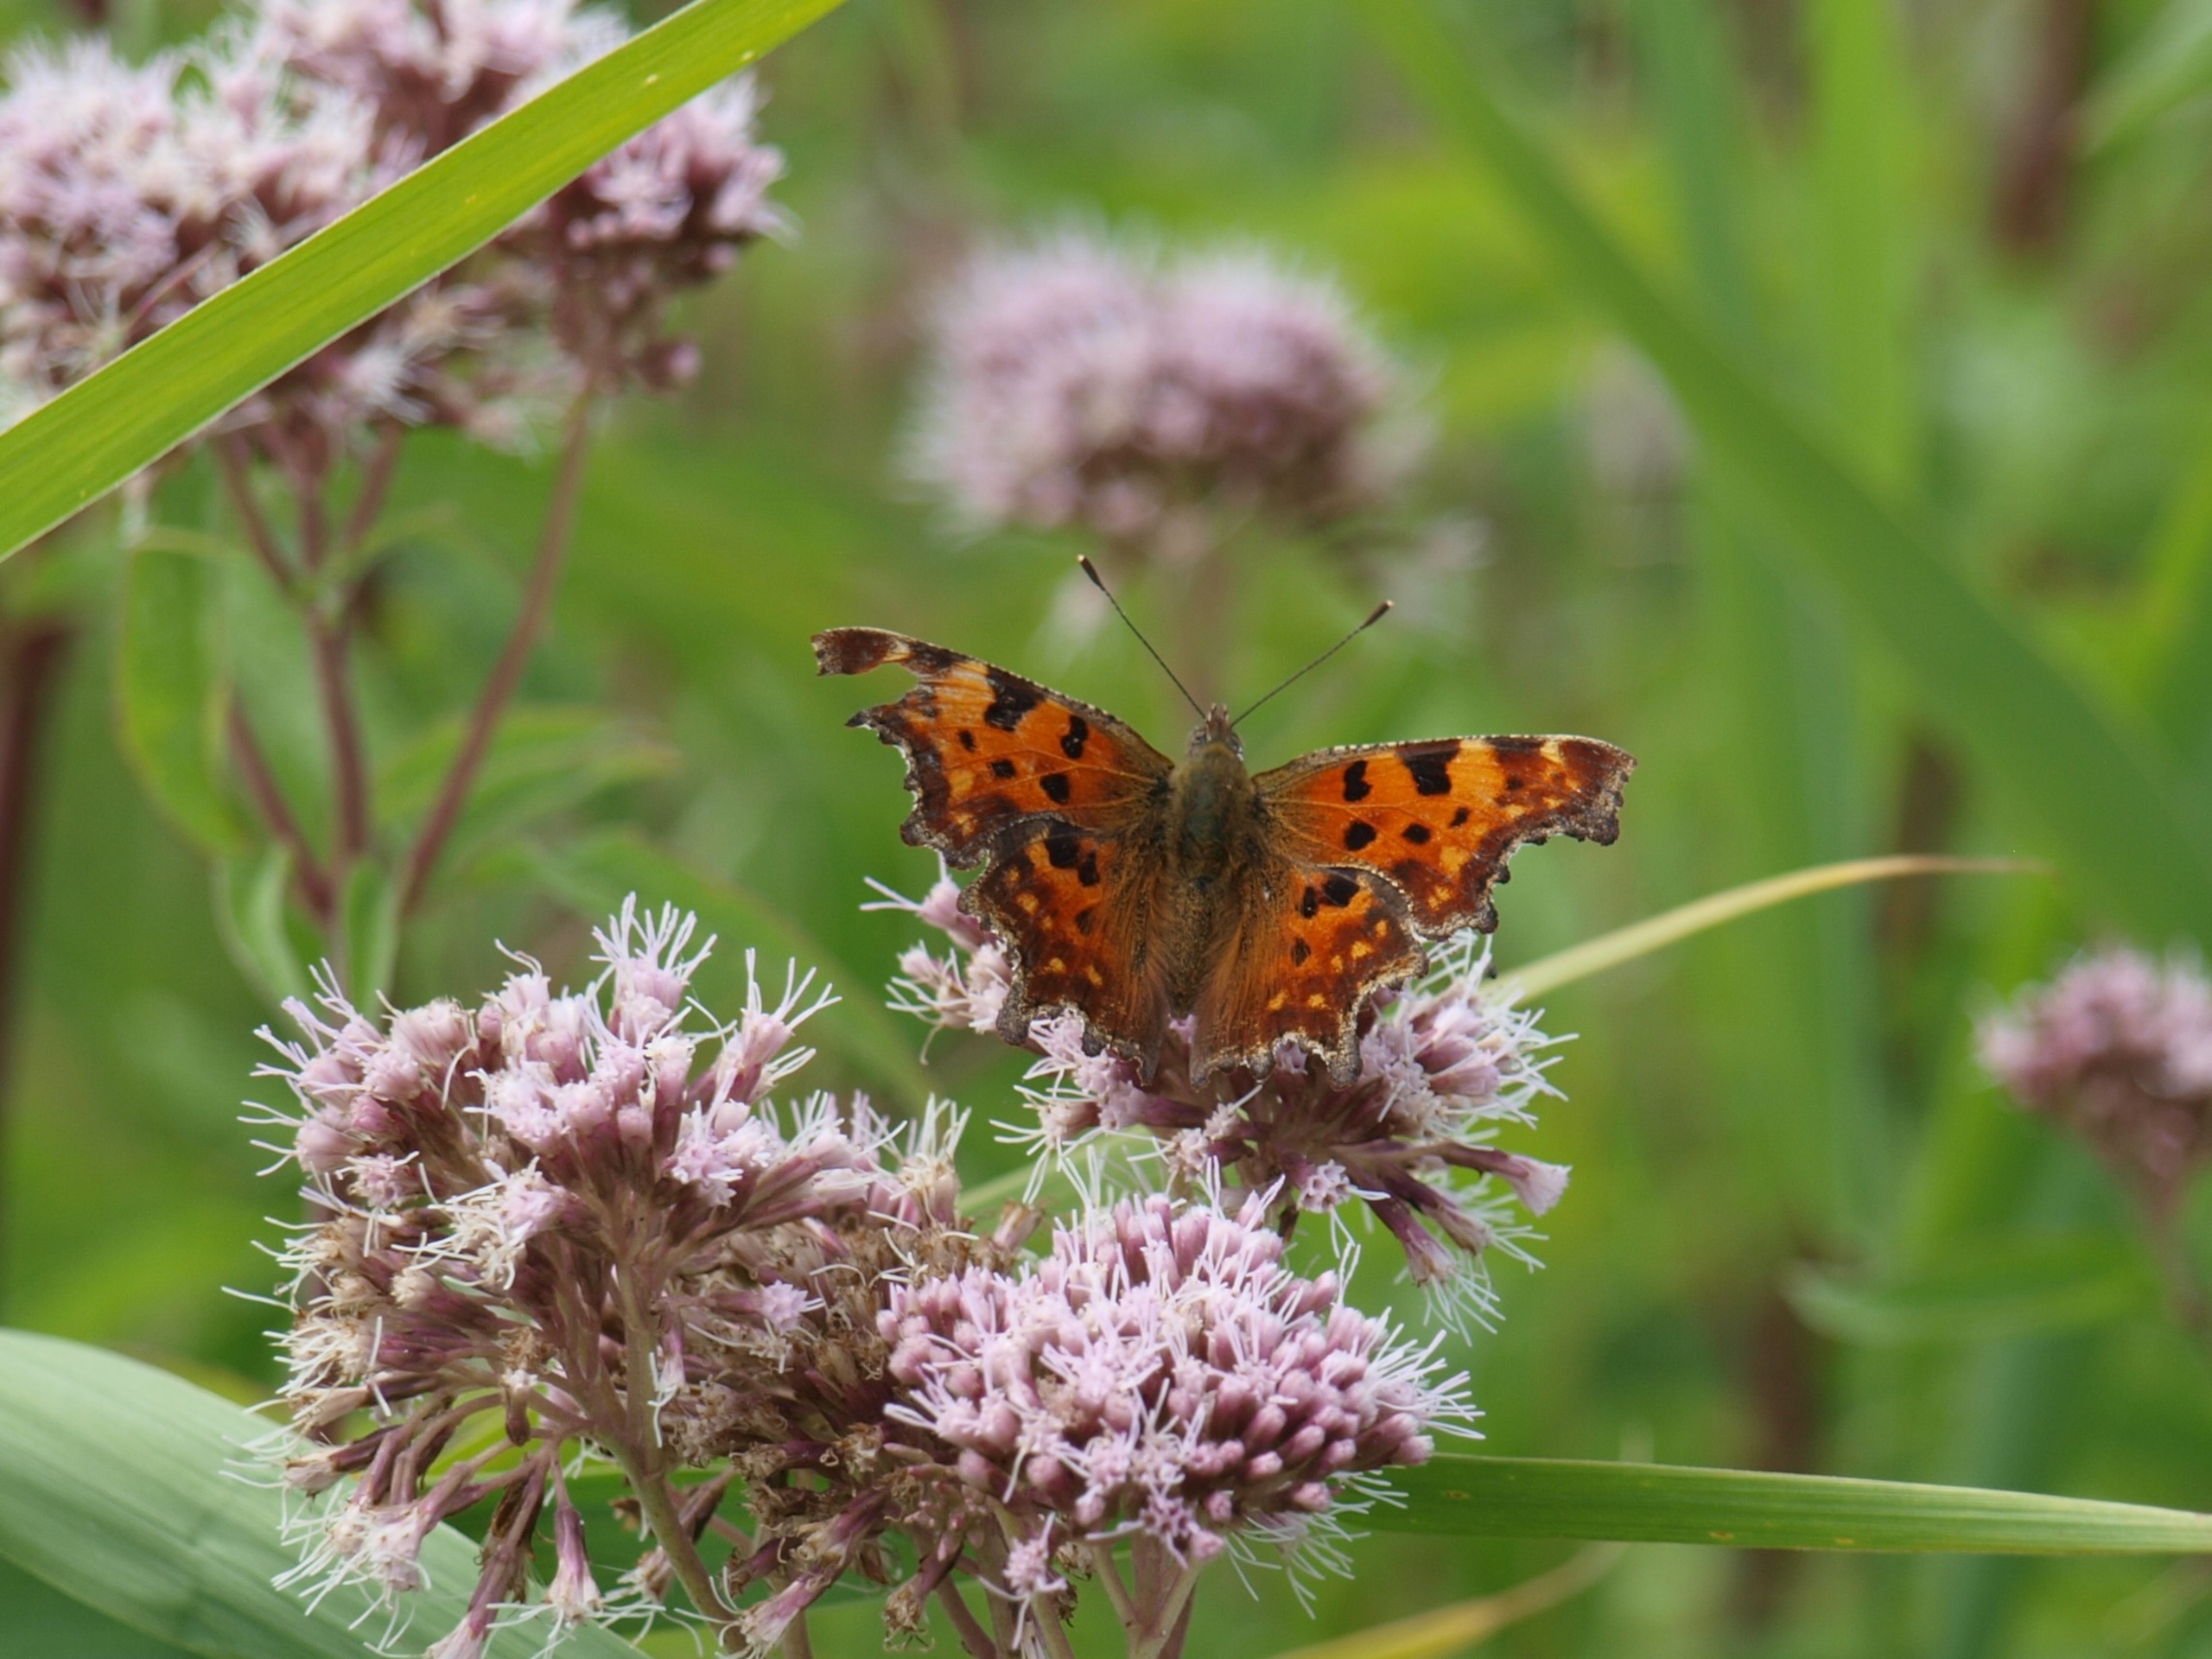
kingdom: Animalia
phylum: Arthropoda
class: Insecta
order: Lepidoptera
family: Nymphalidae
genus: Polygonia
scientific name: Polygonia c-album
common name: Det hvide C
